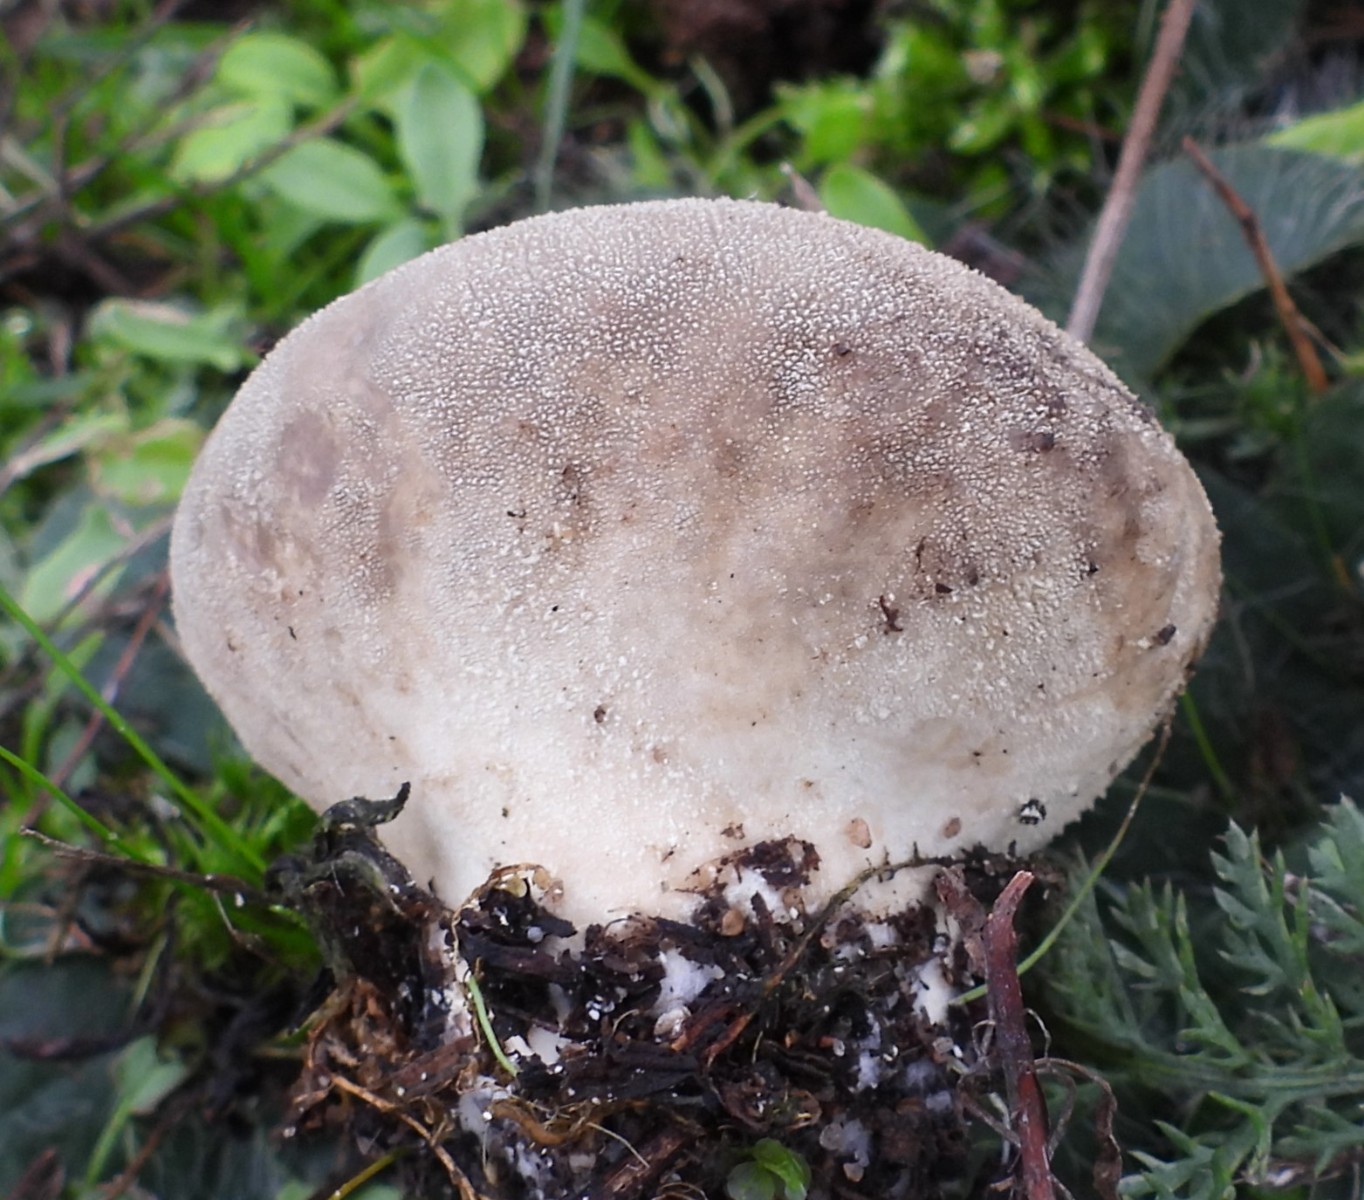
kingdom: Fungi
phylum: Basidiomycota
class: Agaricomycetes
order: Agaricales
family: Lycoperdaceae
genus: Lycoperdon
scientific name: Lycoperdon pratense
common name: flad støvbold
